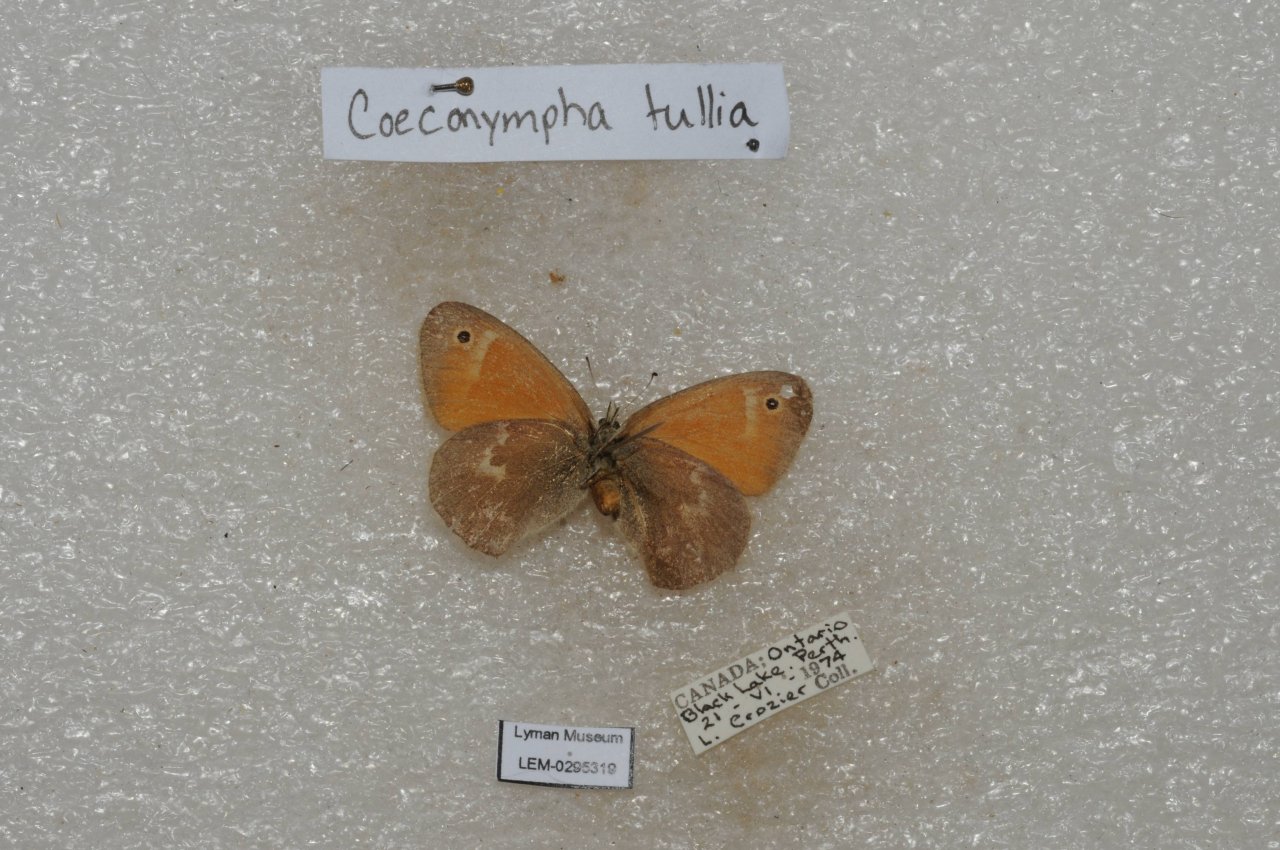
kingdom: Animalia
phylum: Arthropoda
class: Insecta
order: Lepidoptera
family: Nymphalidae
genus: Coenonympha
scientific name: Coenonympha tullia
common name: Large Heath
